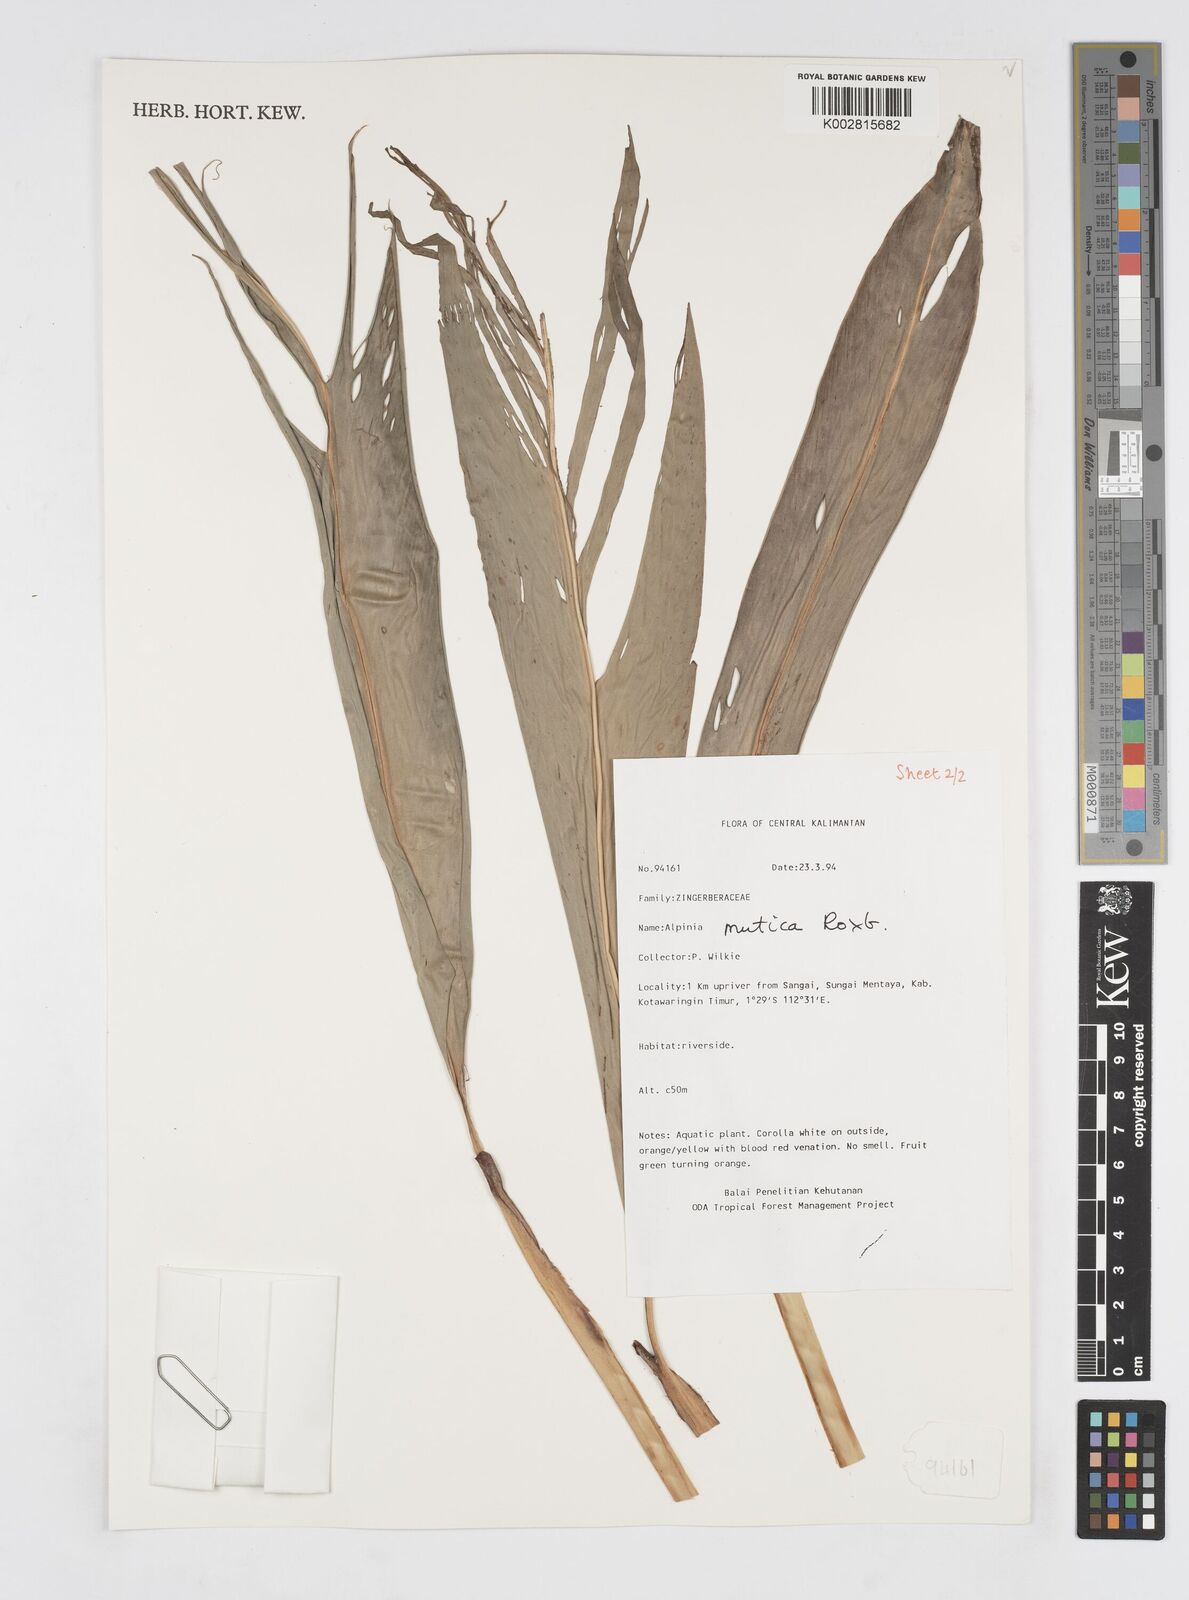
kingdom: Plantae
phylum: Tracheophyta
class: Liliopsida
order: Zingiberales
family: Zingiberaceae
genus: Alpinia
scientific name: Alpinia mutica
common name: Small shell ginger
